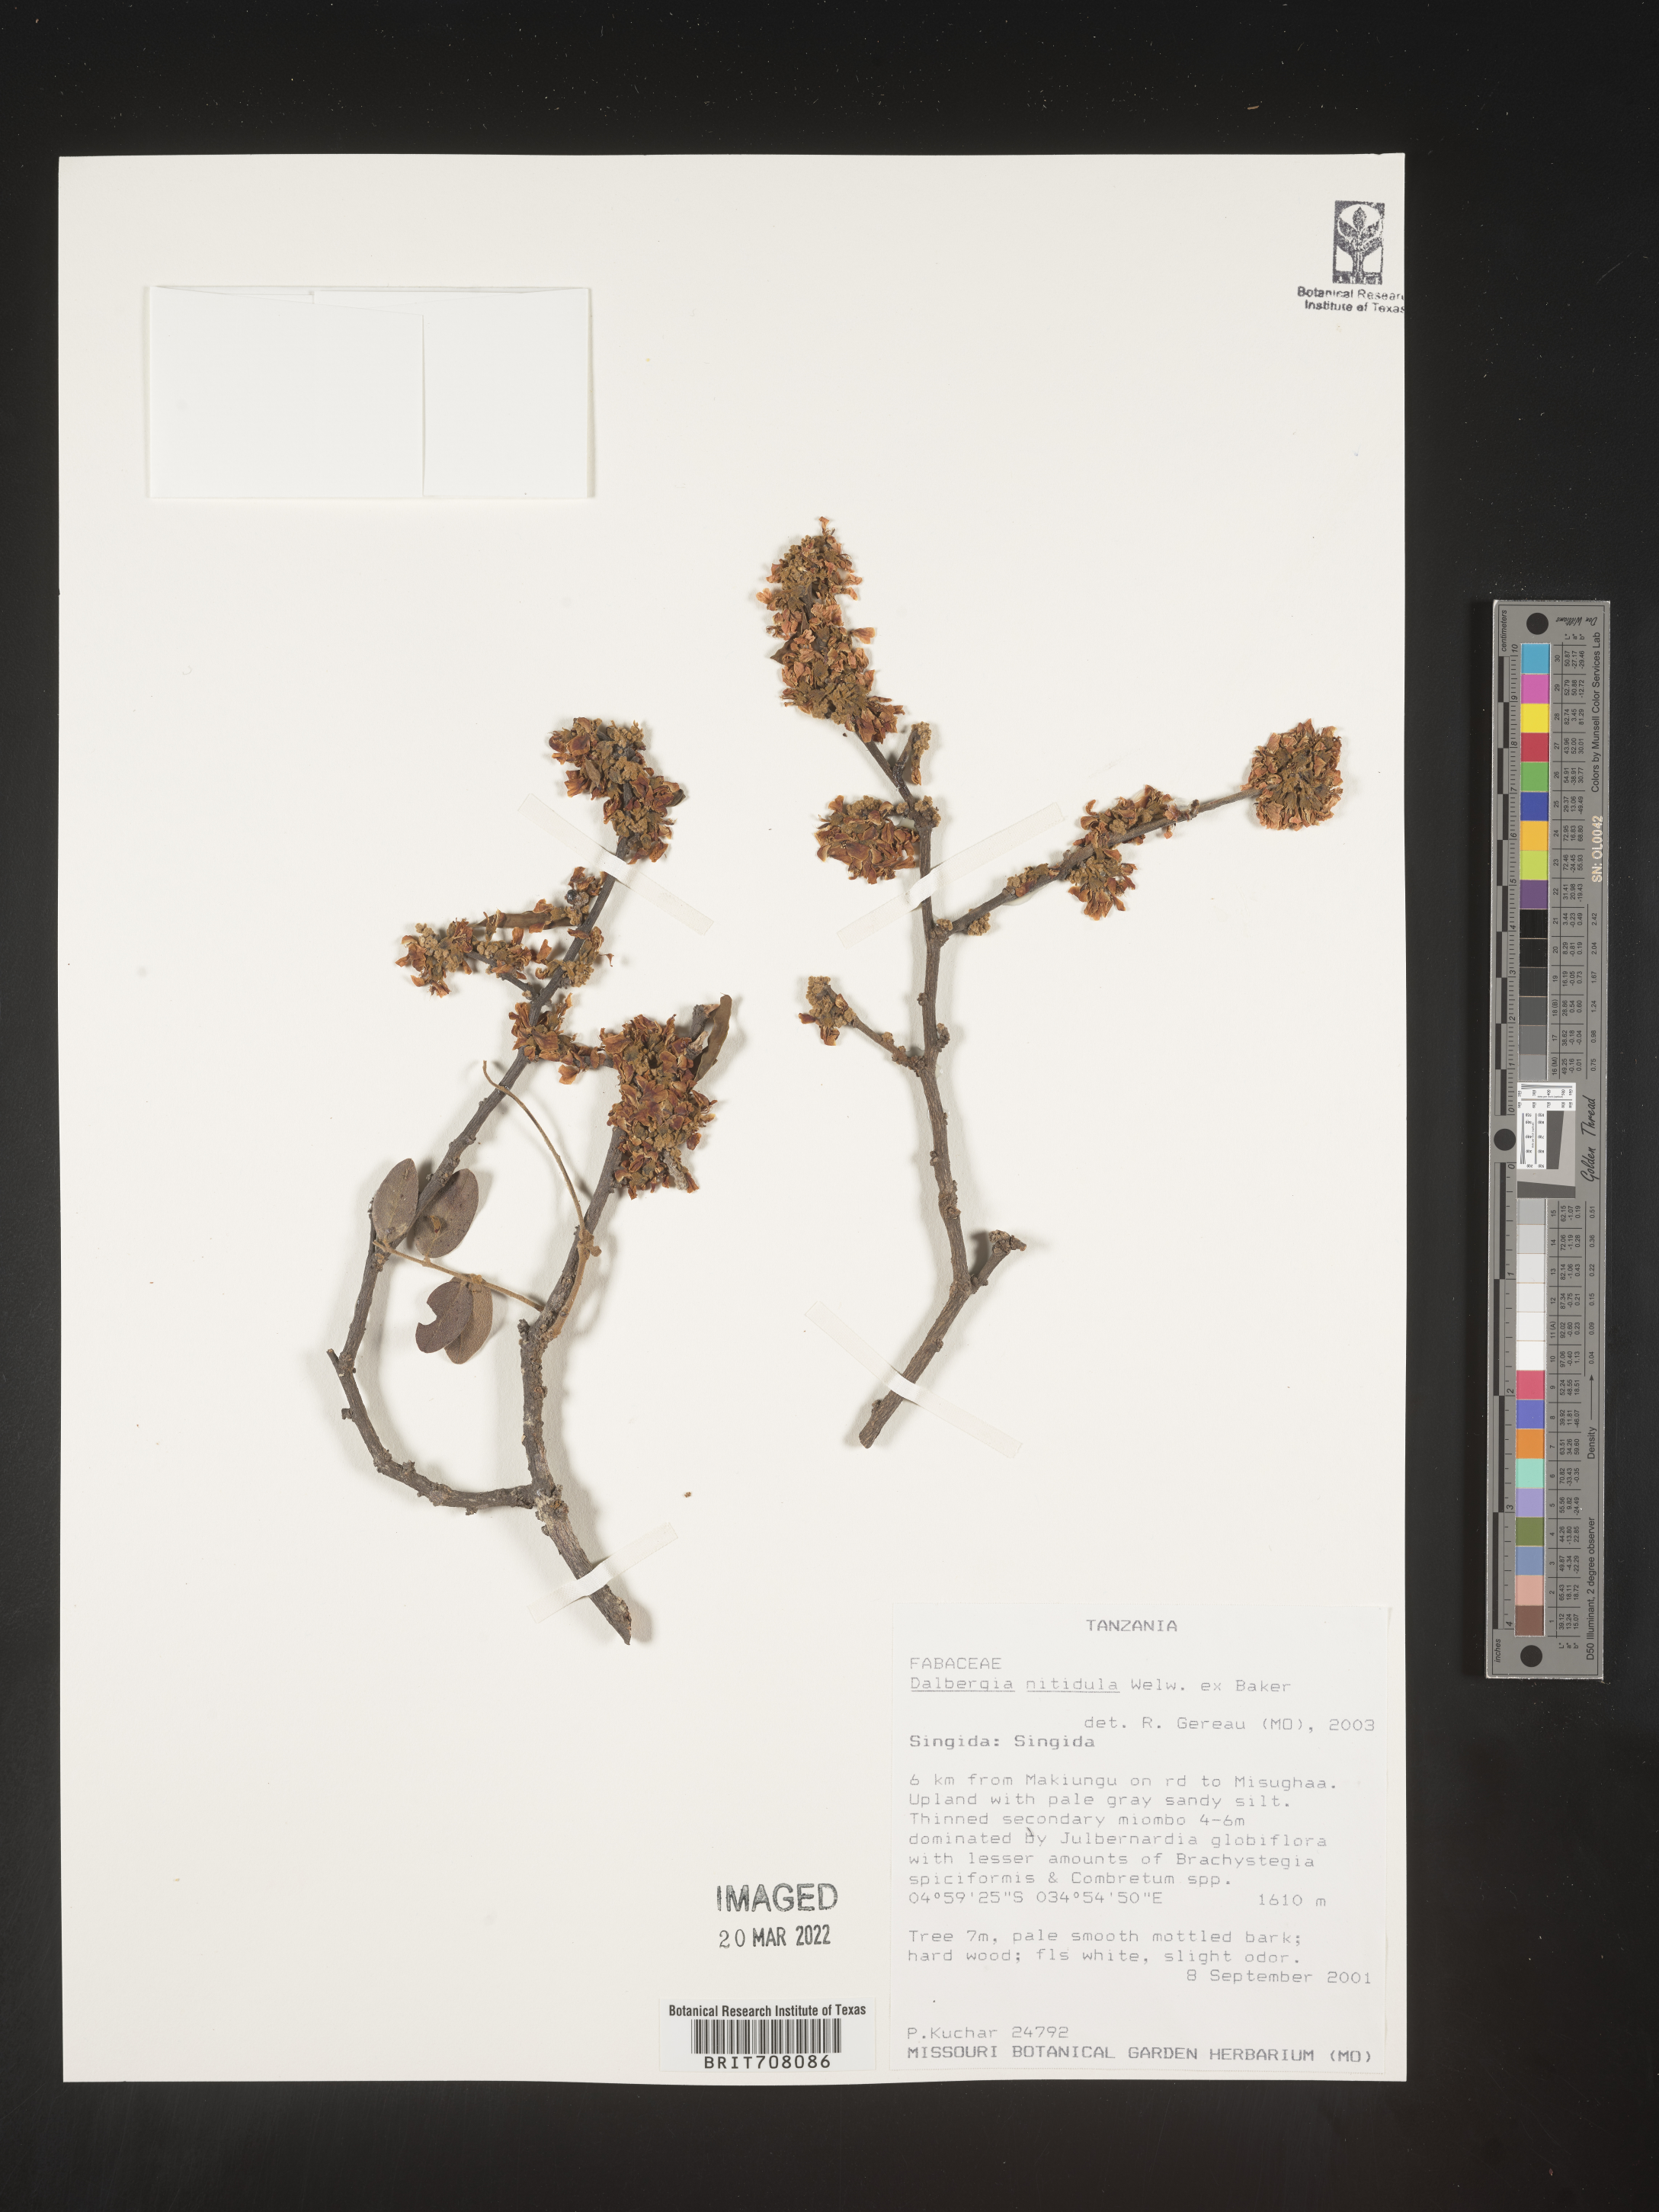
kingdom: Plantae
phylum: Tracheophyta
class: Magnoliopsida
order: Fabales
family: Fabaceae
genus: Dalbergia
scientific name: Dalbergia
